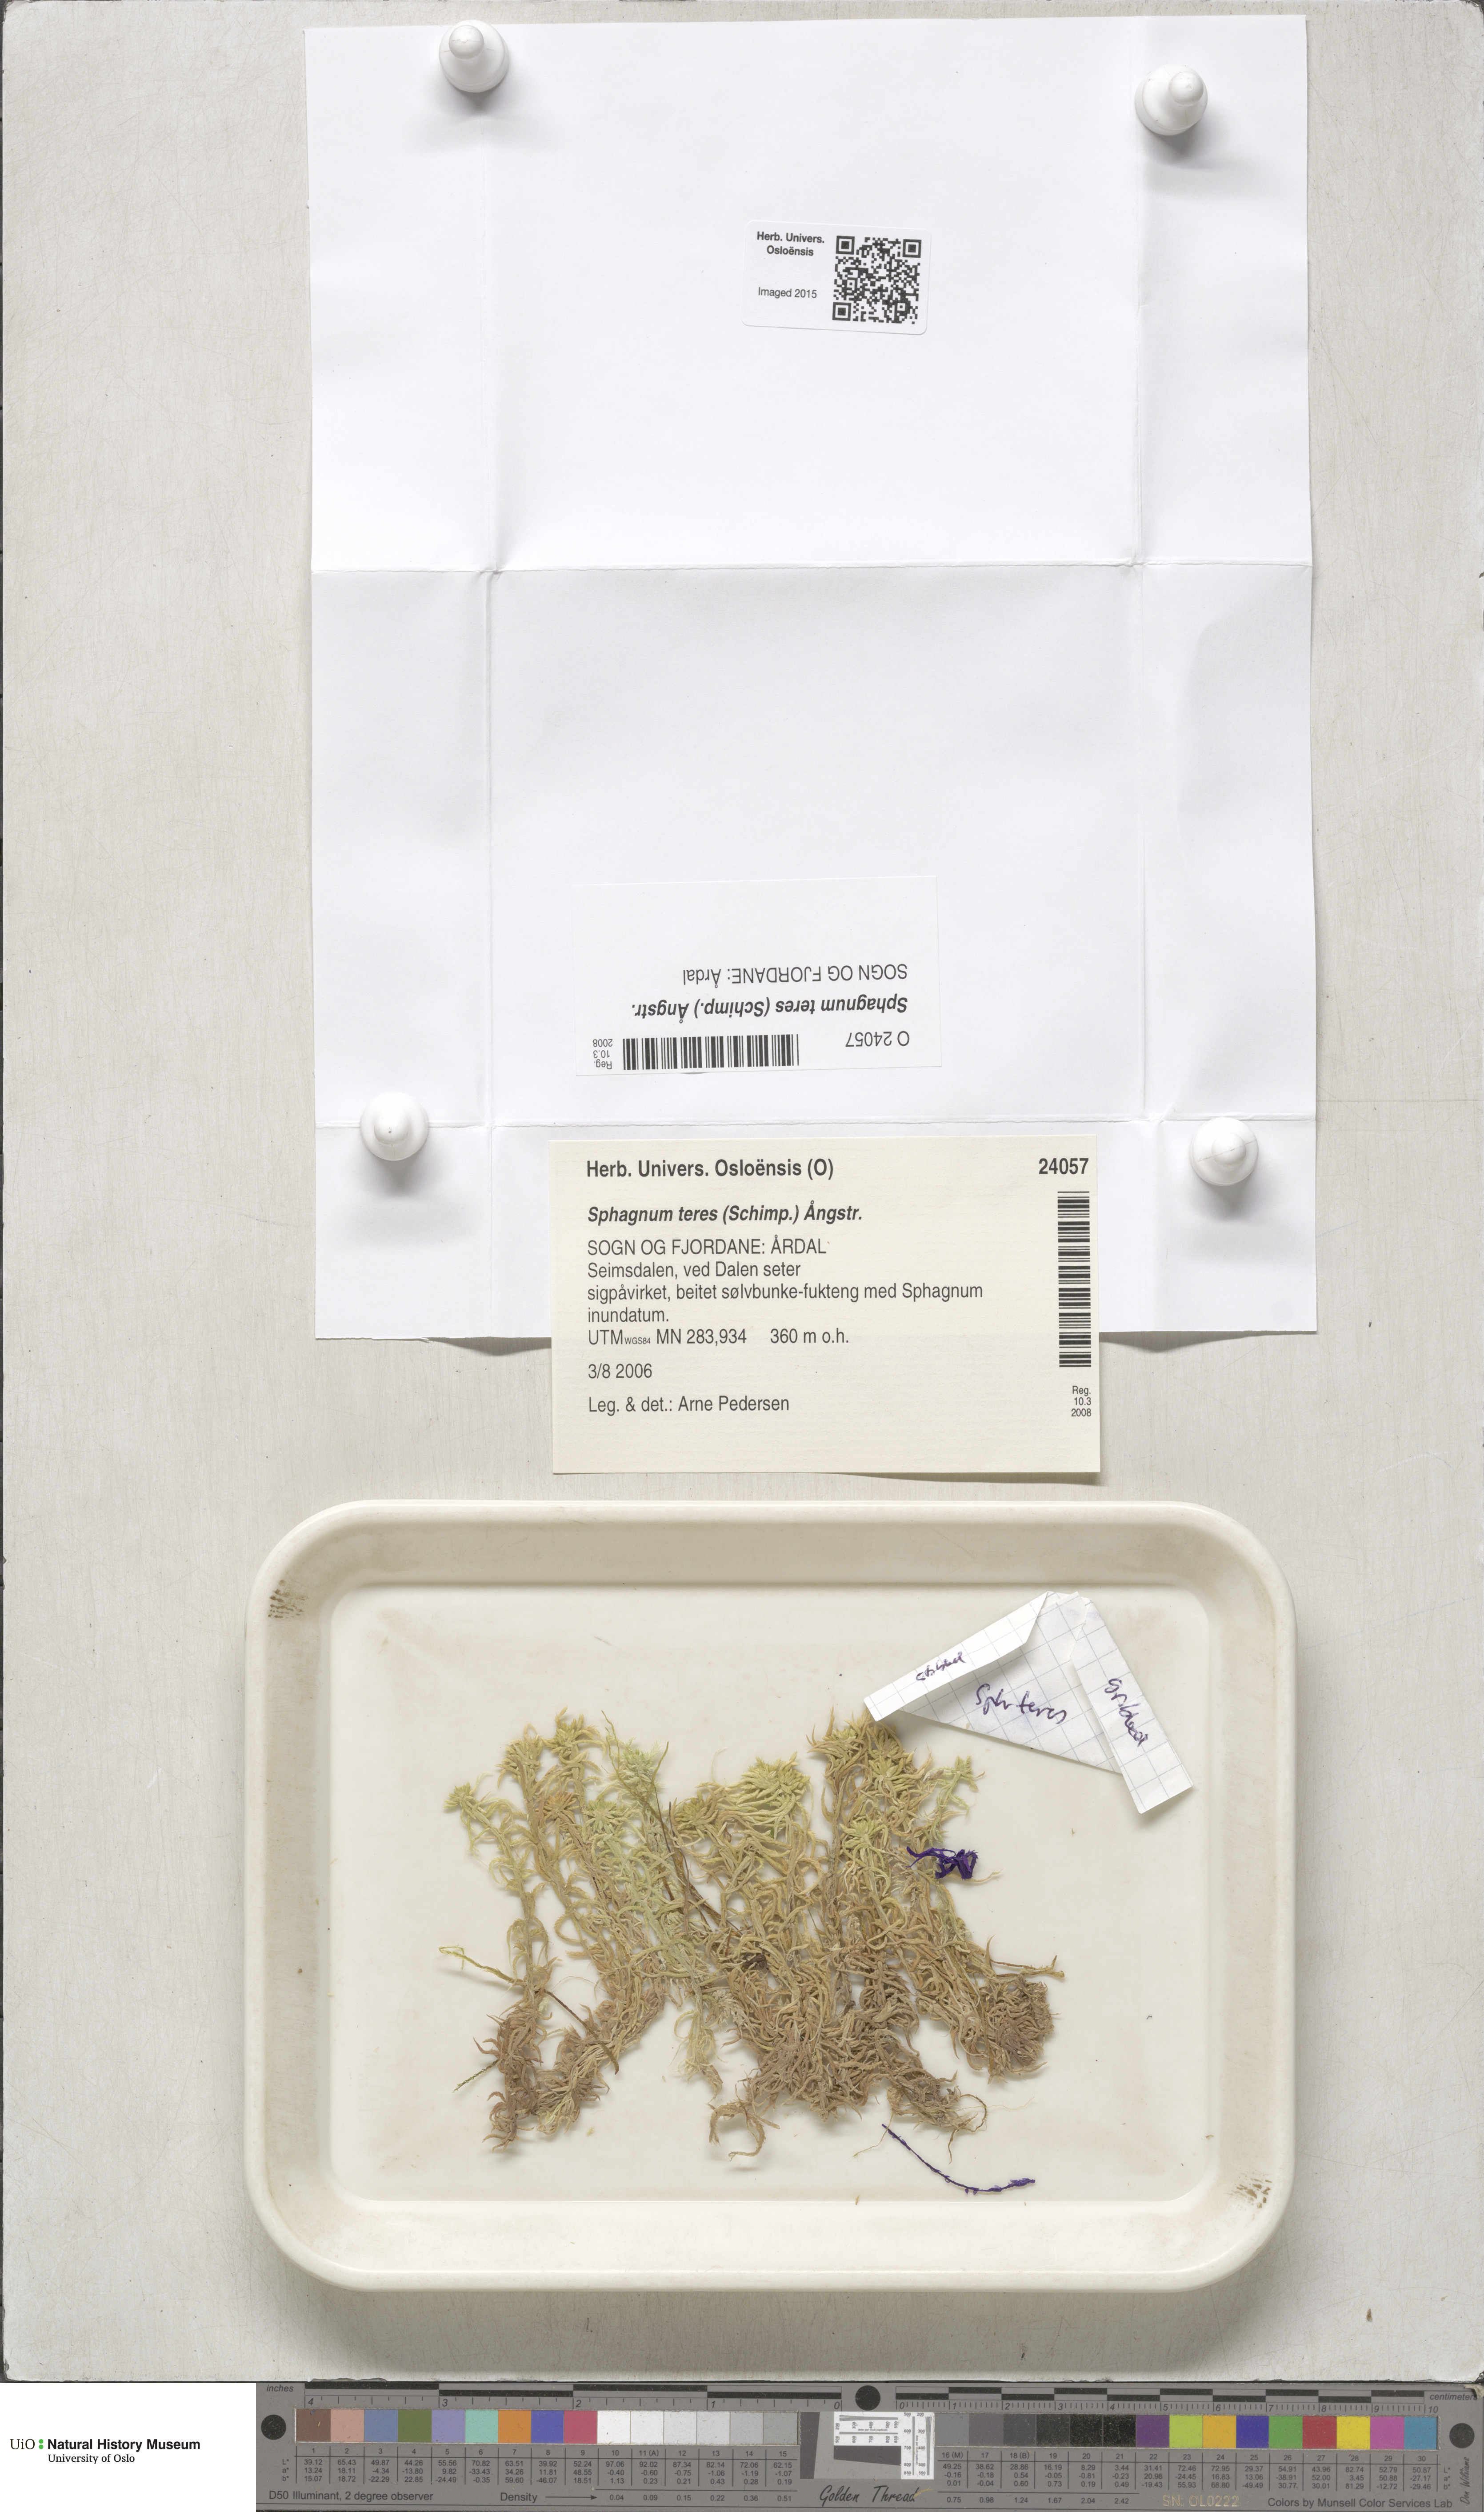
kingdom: Plantae
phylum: Bryophyta
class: Sphagnopsida
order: Sphagnales
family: Sphagnaceae
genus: Sphagnum
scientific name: Sphagnum teres
